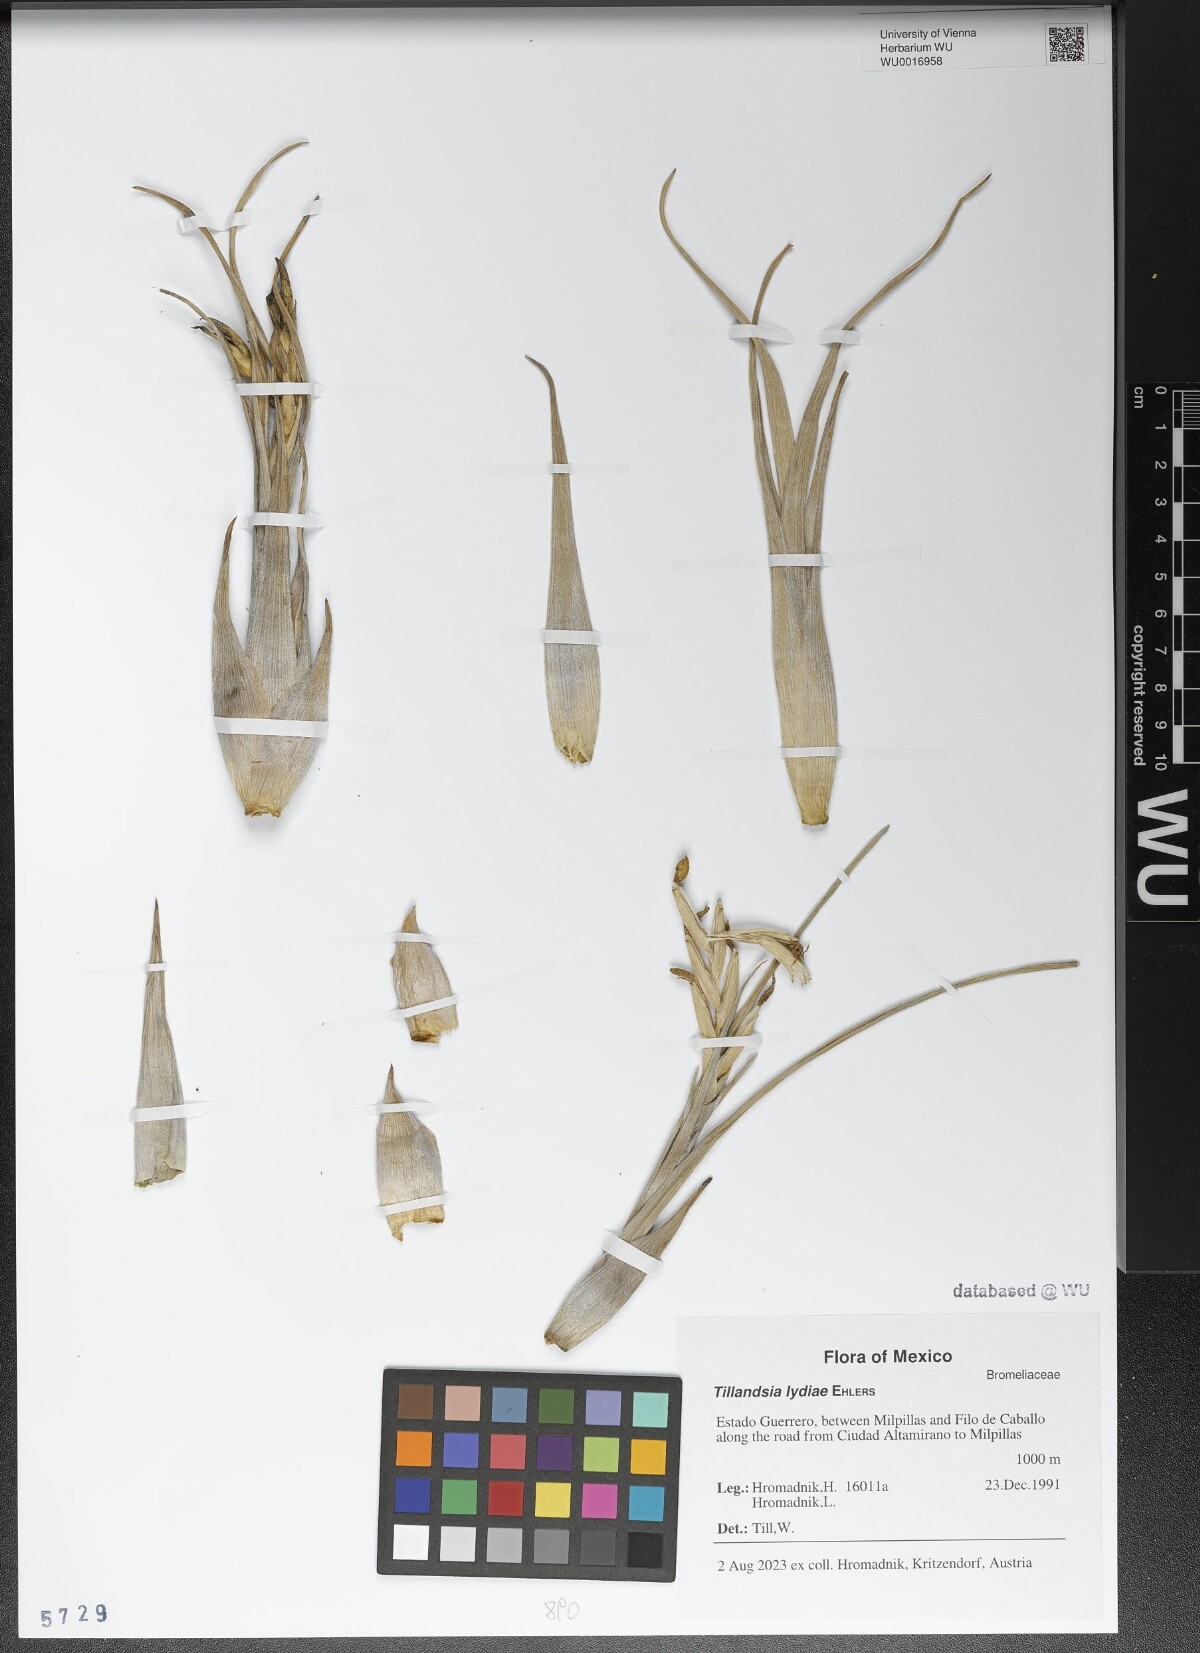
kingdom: Plantae
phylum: Tracheophyta
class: Liliopsida
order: Poales
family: Bromeliaceae
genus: Tillandsia
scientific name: Tillandsia lydiae
